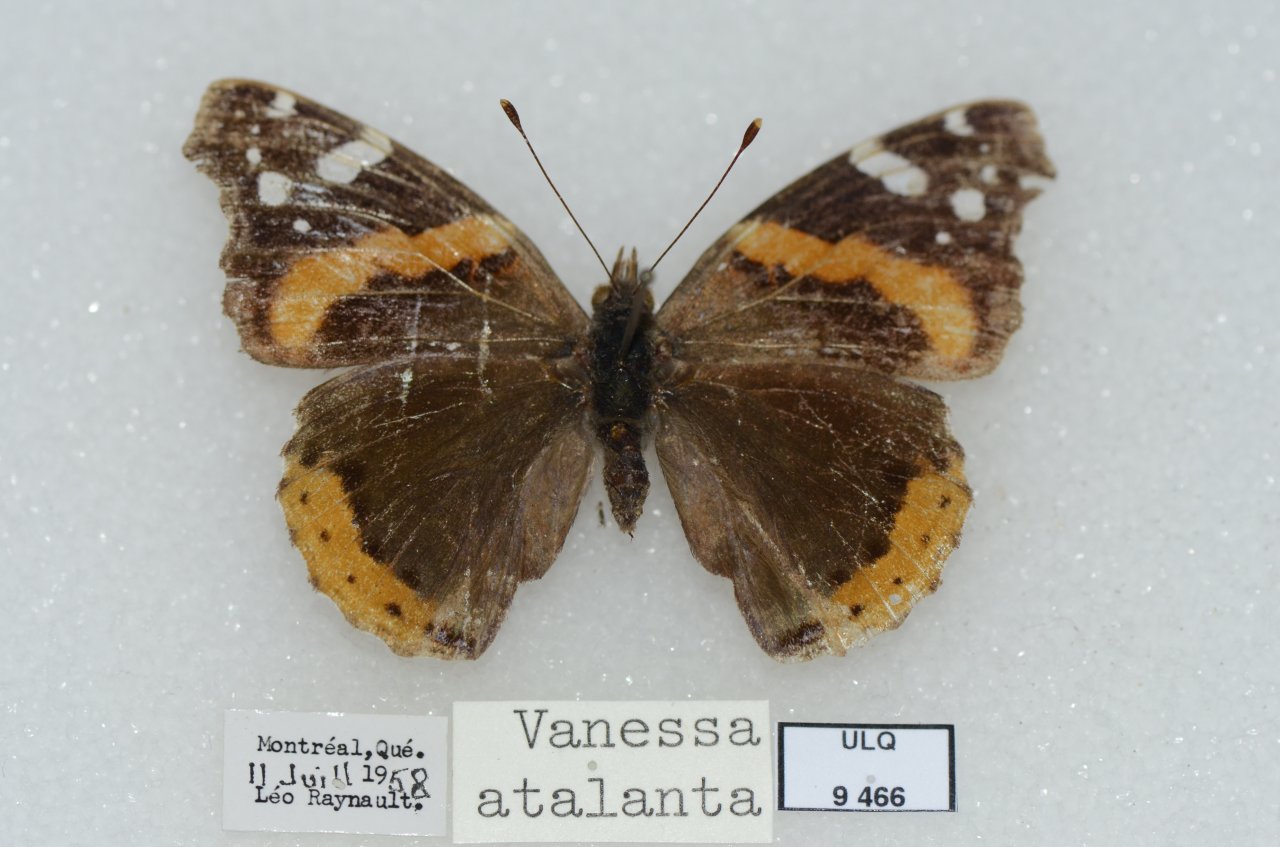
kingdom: Animalia
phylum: Arthropoda
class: Insecta
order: Lepidoptera
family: Nymphalidae
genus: Vanessa
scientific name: Vanessa atalanta
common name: Red Admiral
